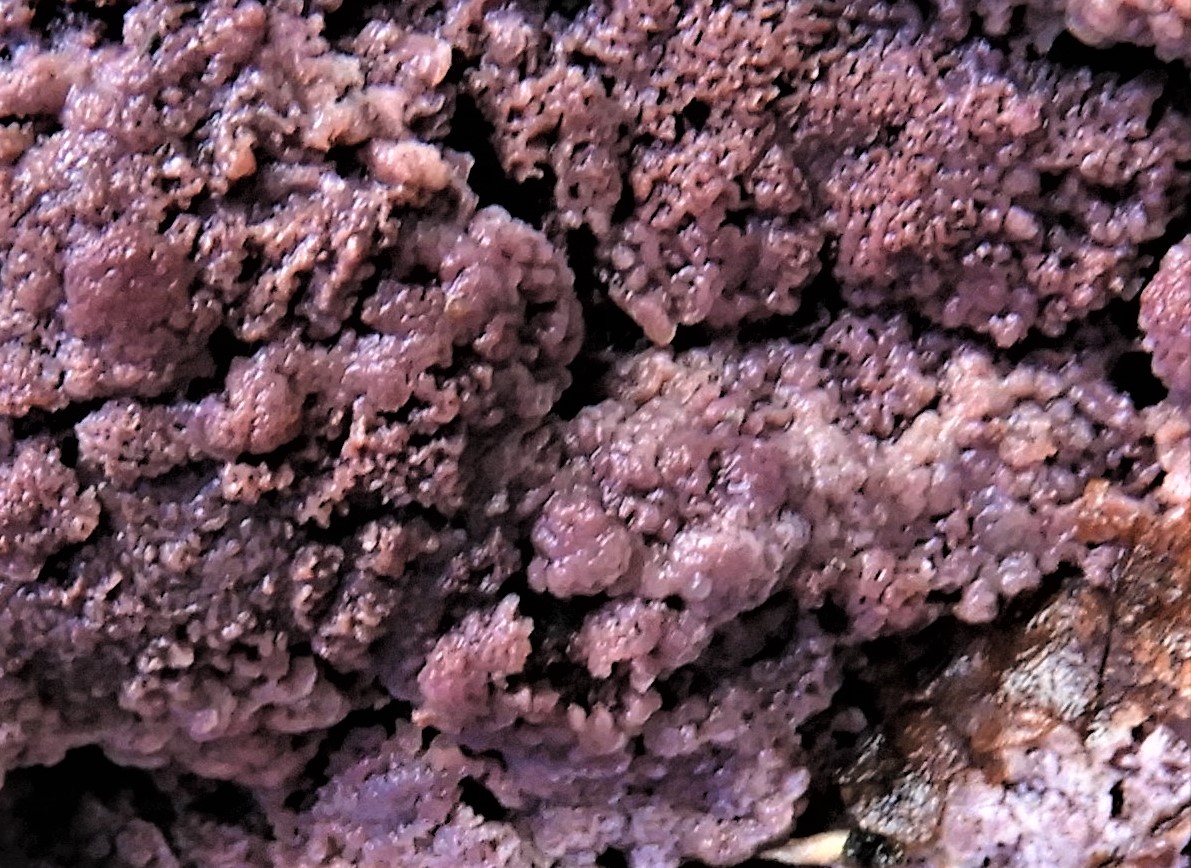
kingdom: Fungi
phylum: Basidiomycota
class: Agaricomycetes
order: Polyporales
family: Irpicaceae
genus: Ceriporia
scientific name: Ceriporia excelsa
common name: lilla voksporesvamp
